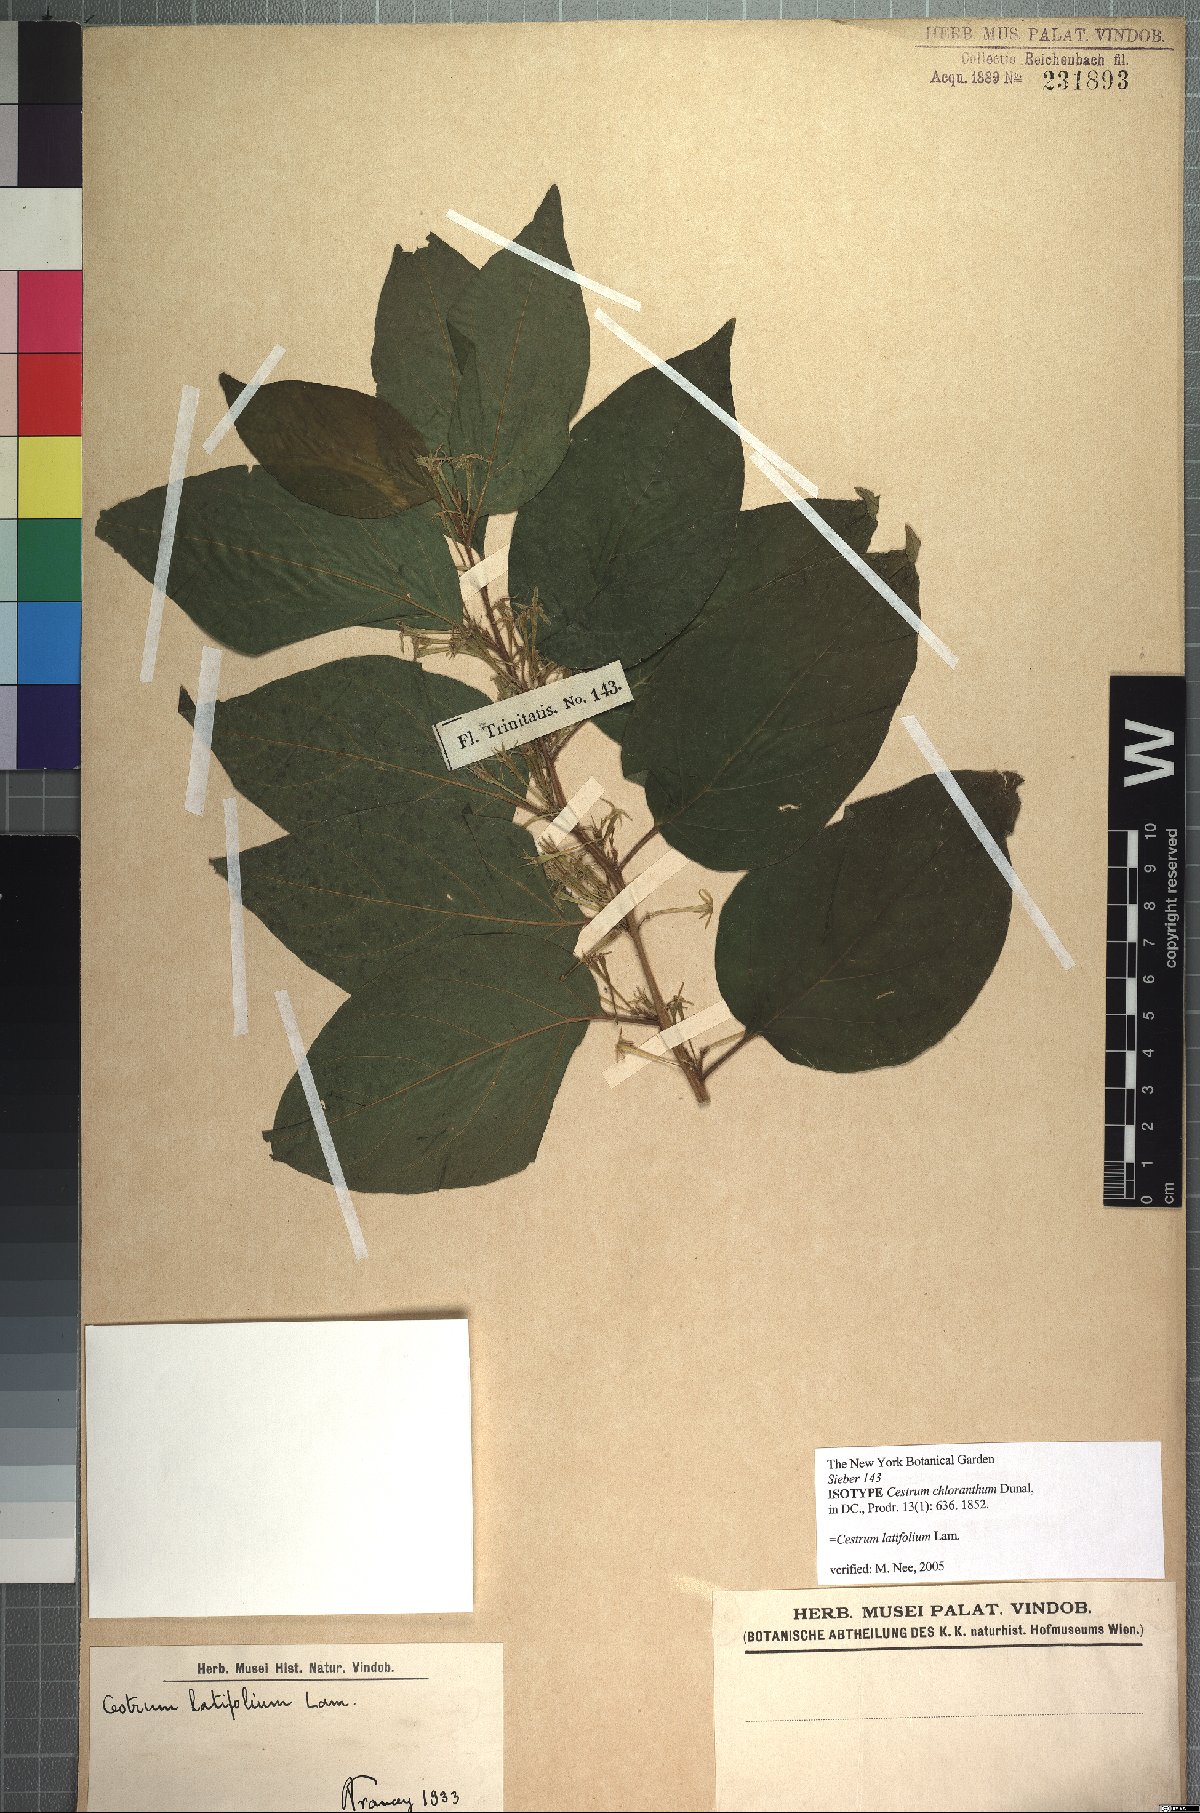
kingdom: Plantae
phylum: Tracheophyta
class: Magnoliopsida
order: Solanales
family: Solanaceae
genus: Cestrum
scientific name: Cestrum latifolium
